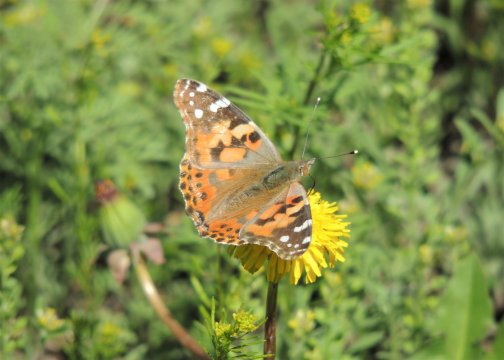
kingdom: Animalia
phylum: Arthropoda
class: Insecta
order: Lepidoptera
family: Nymphalidae
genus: Vanessa
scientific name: Vanessa cardui
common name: Painted Lady
